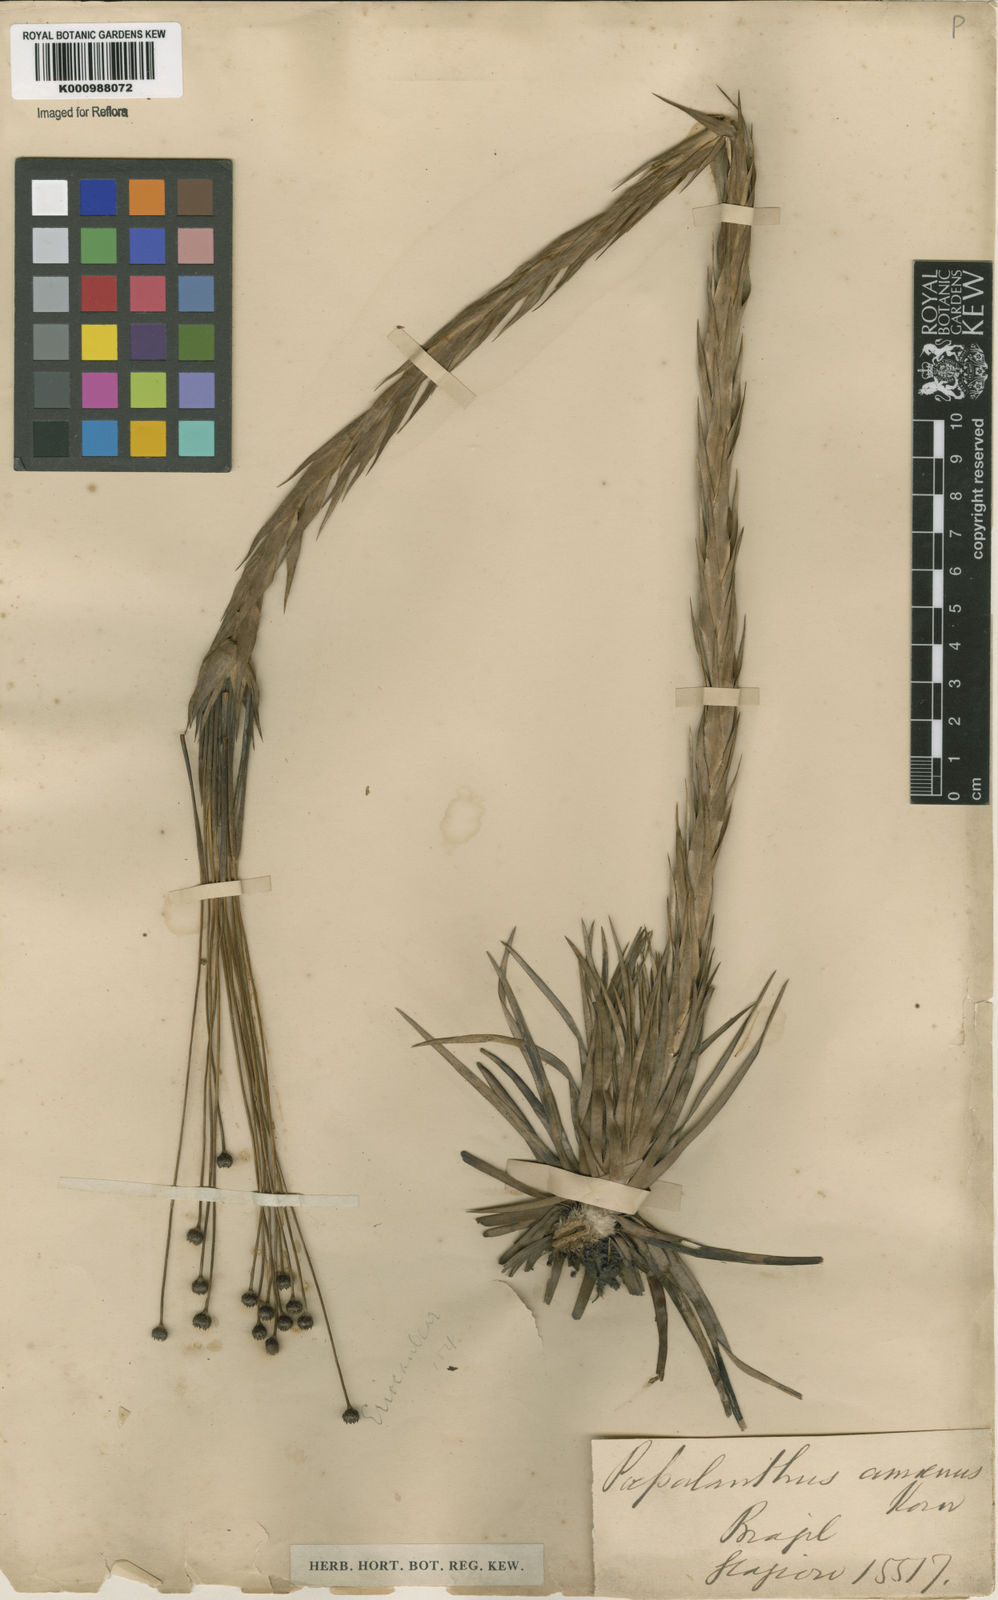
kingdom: Plantae
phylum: Tracheophyta
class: Liliopsida
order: Poales
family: Eriocaulaceae
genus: Paepalanthus
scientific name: Paepalanthus
